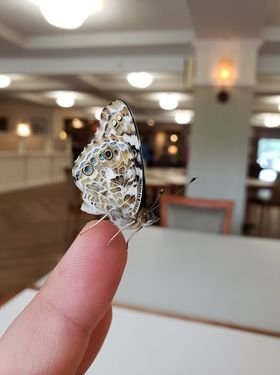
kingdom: Animalia
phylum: Arthropoda
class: Insecta
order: Lepidoptera
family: Nymphalidae
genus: Vanessa
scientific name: Vanessa cardui
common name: Painted Lady
